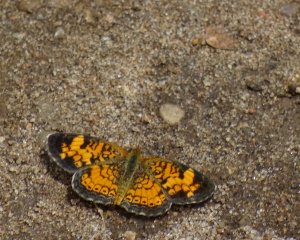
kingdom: Animalia
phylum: Arthropoda
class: Insecta
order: Lepidoptera
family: Nymphalidae
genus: Phyciodes
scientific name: Phyciodes tharos
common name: Pearl Crescent
